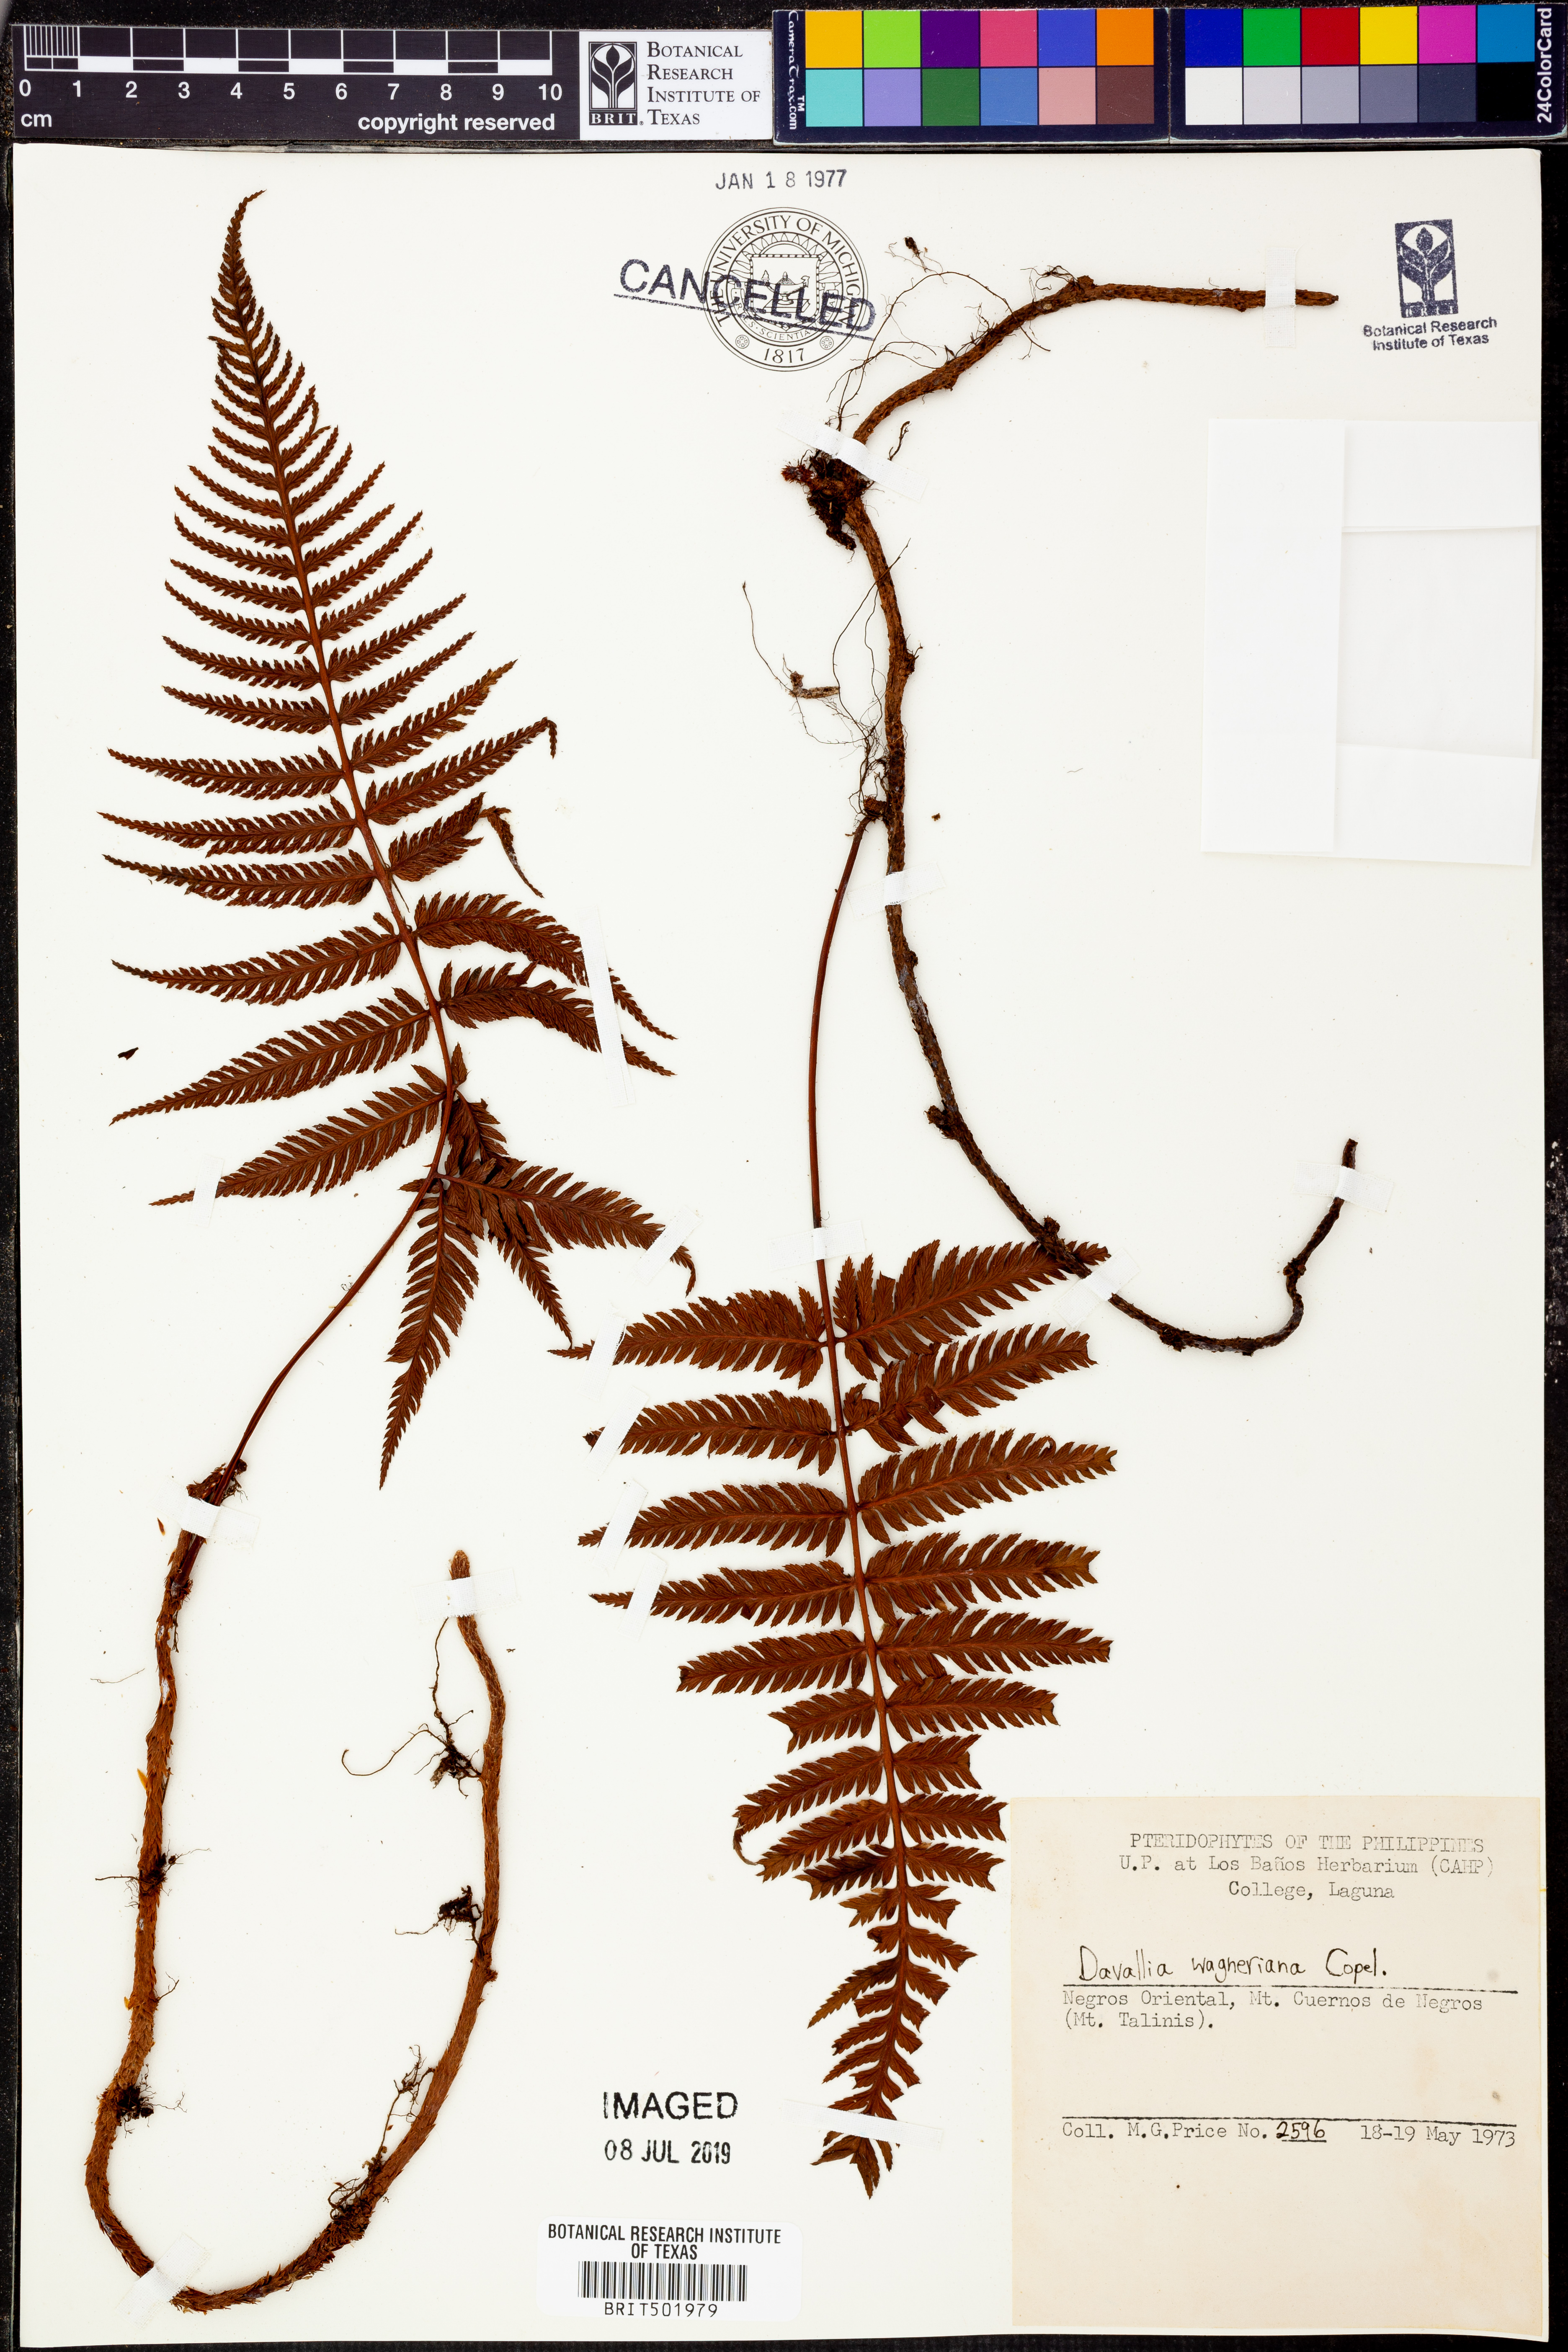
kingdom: Plantae
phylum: Tracheophyta
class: Polypodiopsida
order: Polypodiales
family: Davalliaceae
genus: Davallia
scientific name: Davallia wagneriana
